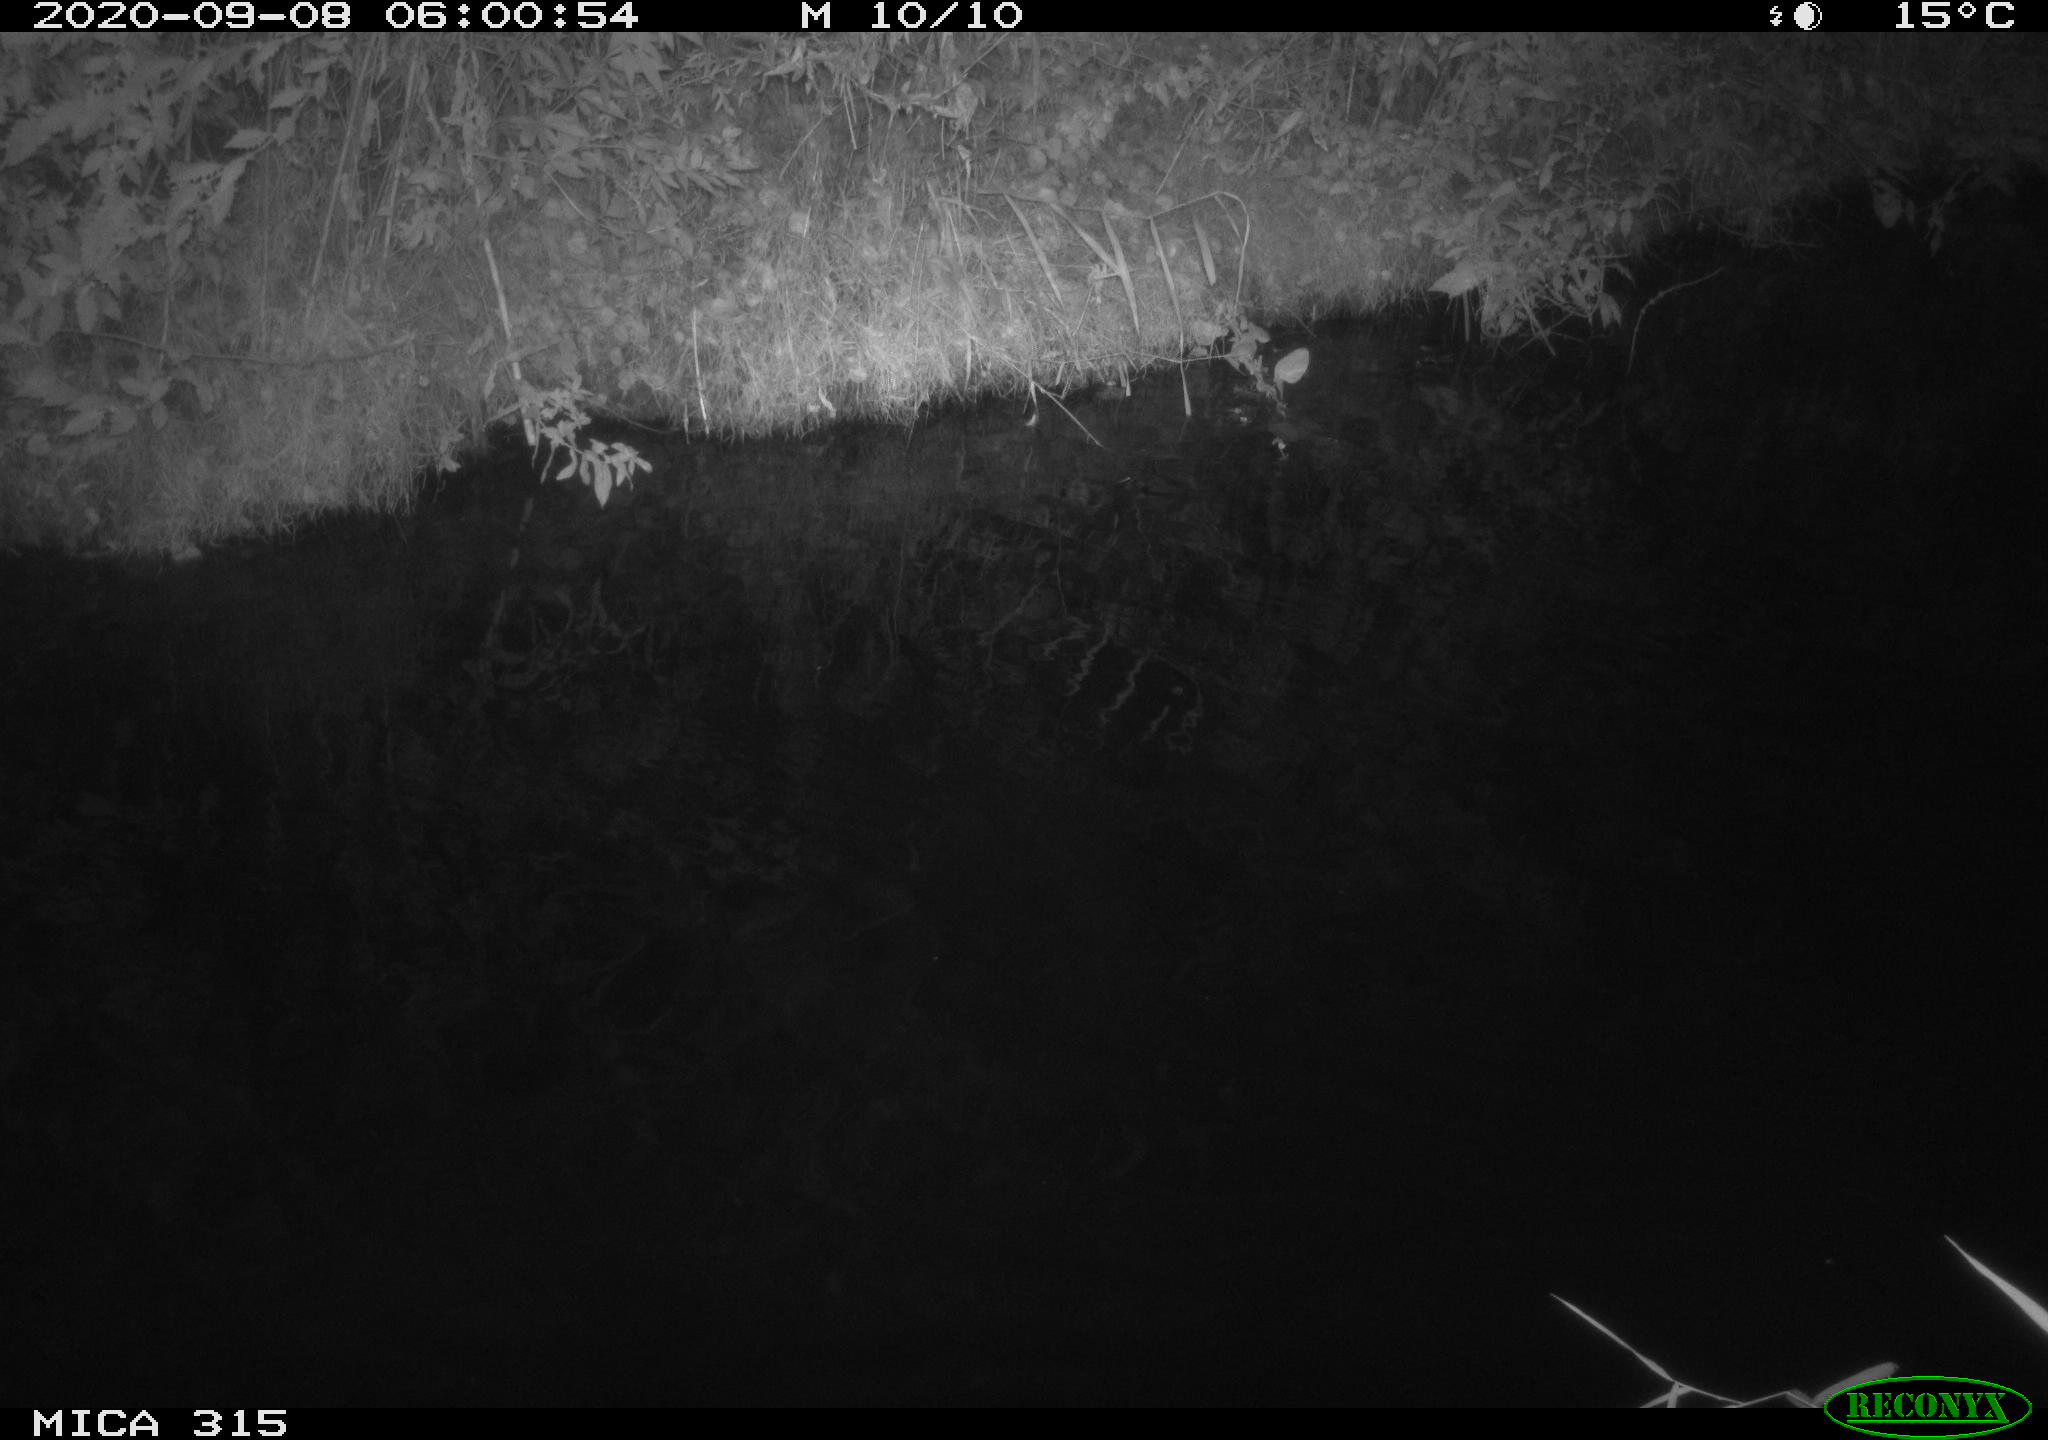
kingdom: Animalia
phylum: Chordata
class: Aves
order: Anseriformes
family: Anatidae
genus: Anas
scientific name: Anas platyrhynchos
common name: Mallard
